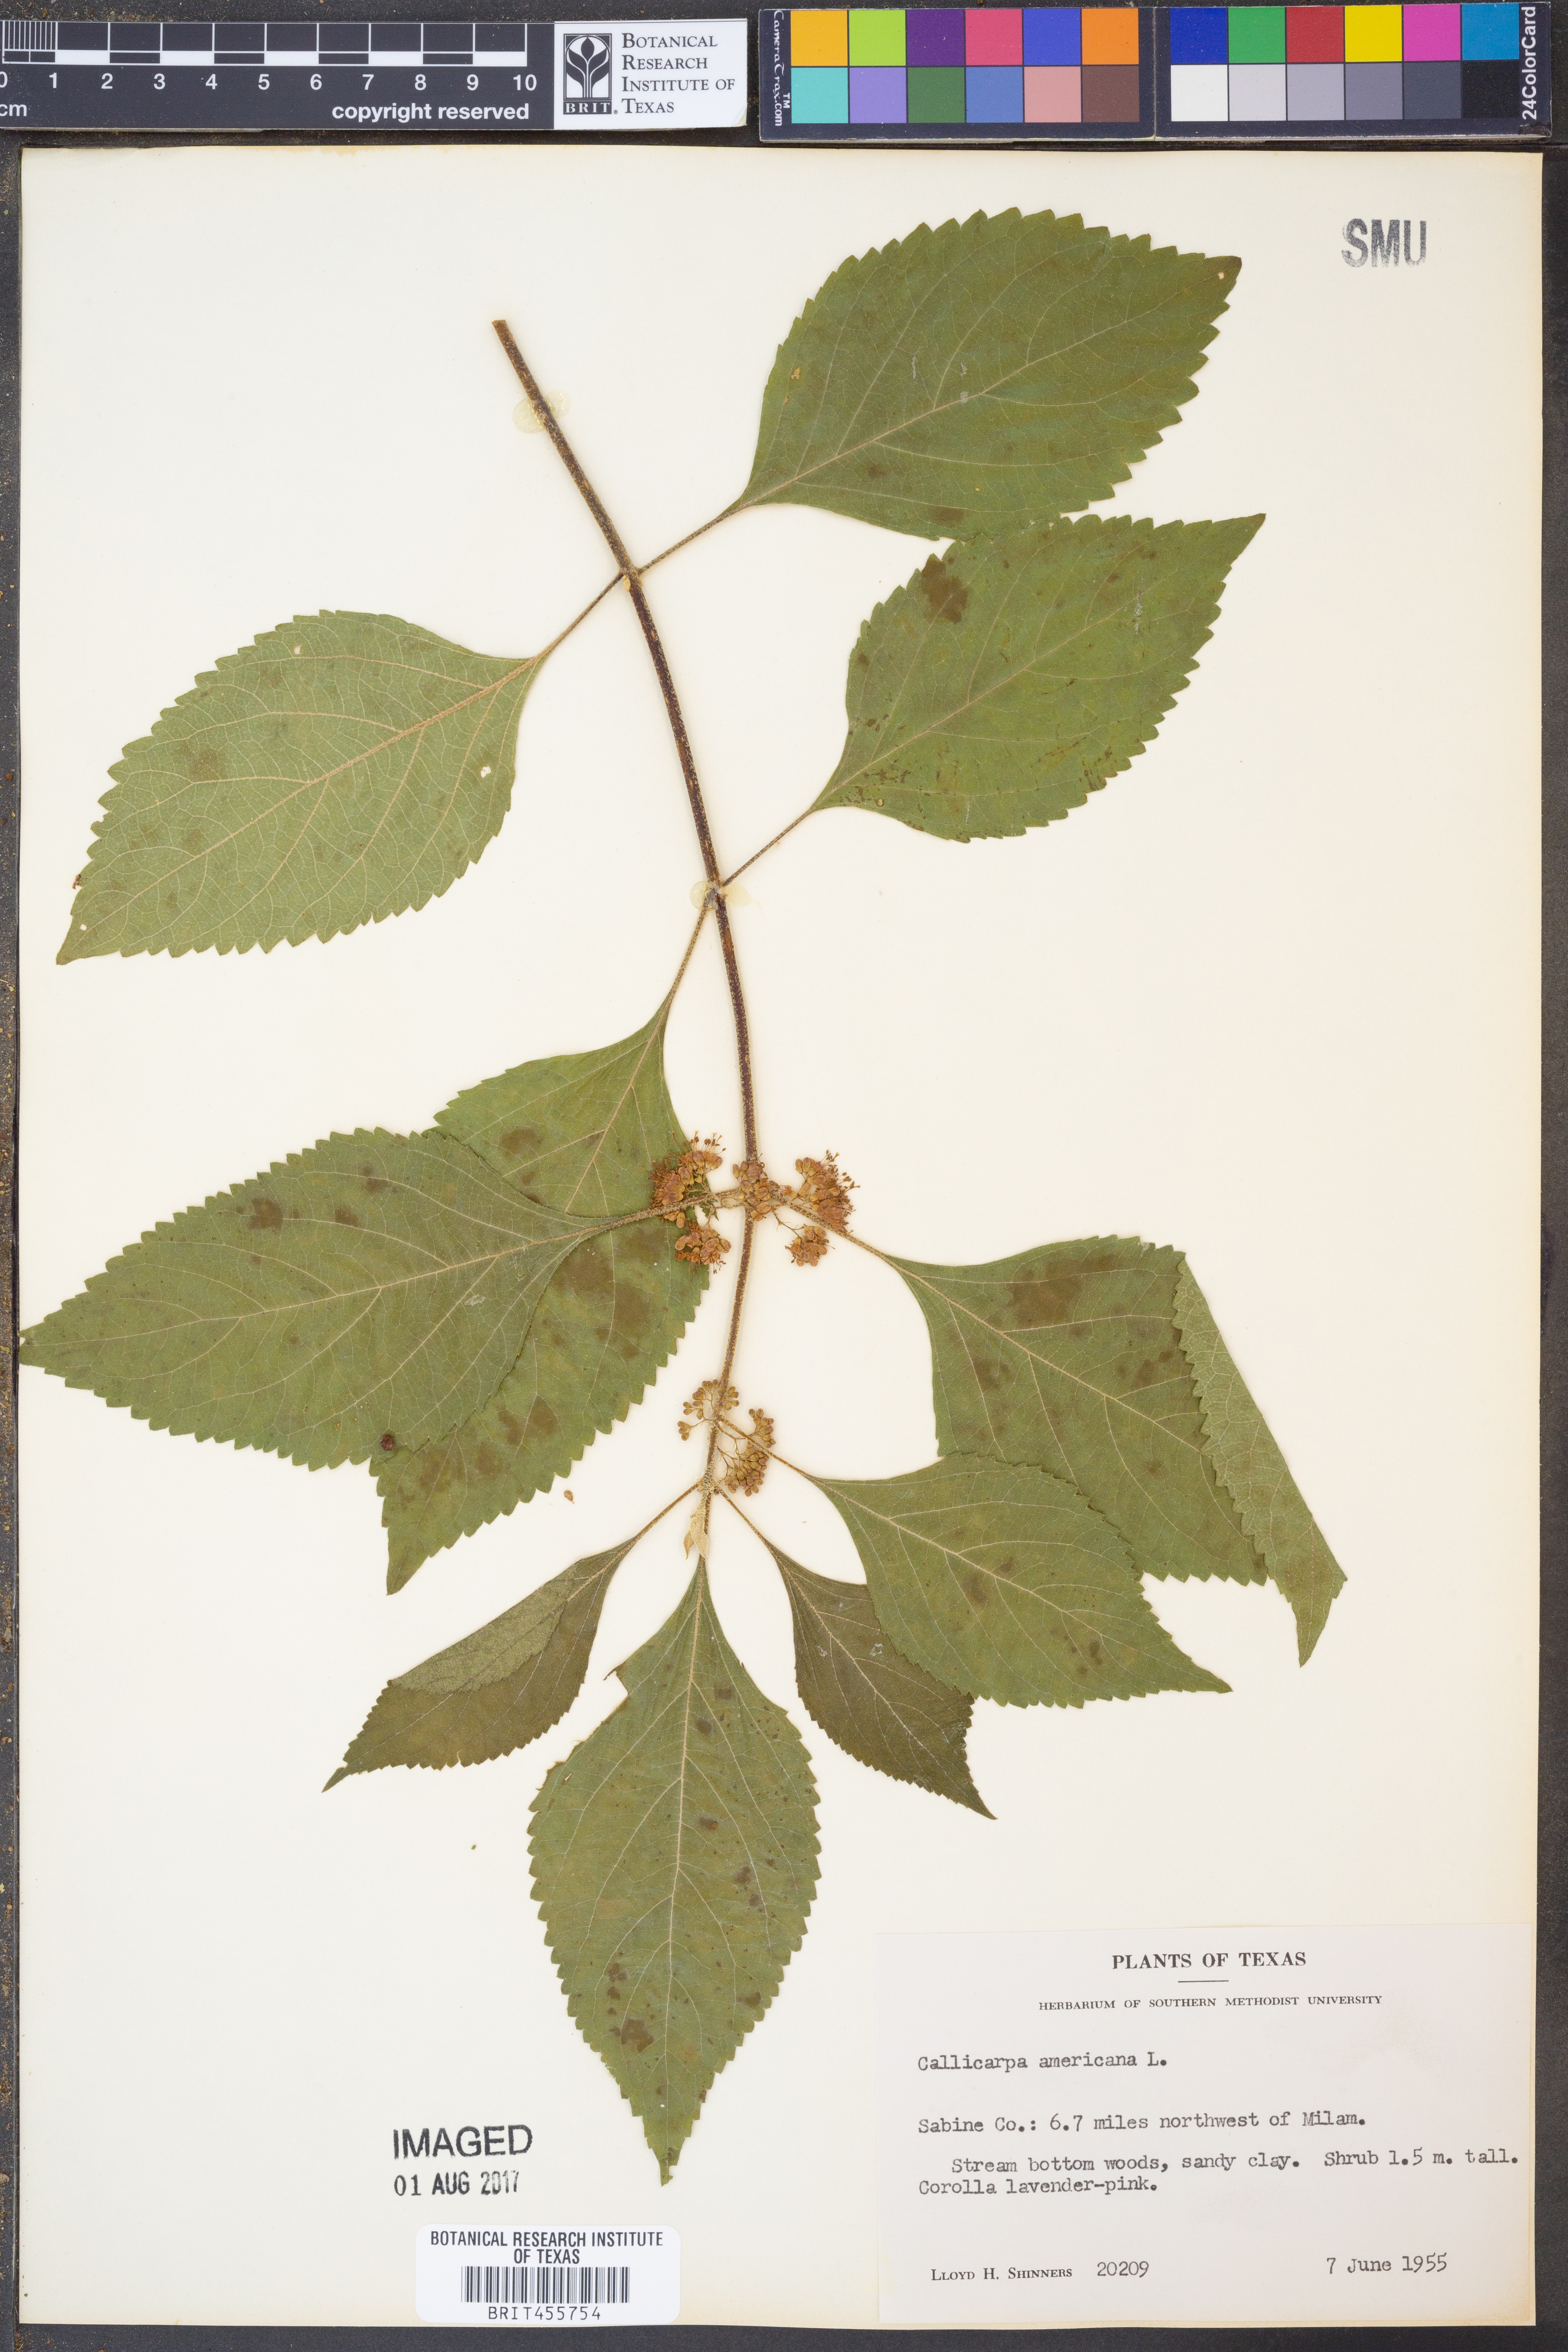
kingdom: Plantae
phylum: Tracheophyta
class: Magnoliopsida
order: Lamiales
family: Lamiaceae
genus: Callicarpa
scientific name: Callicarpa americana
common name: American beautyberry
